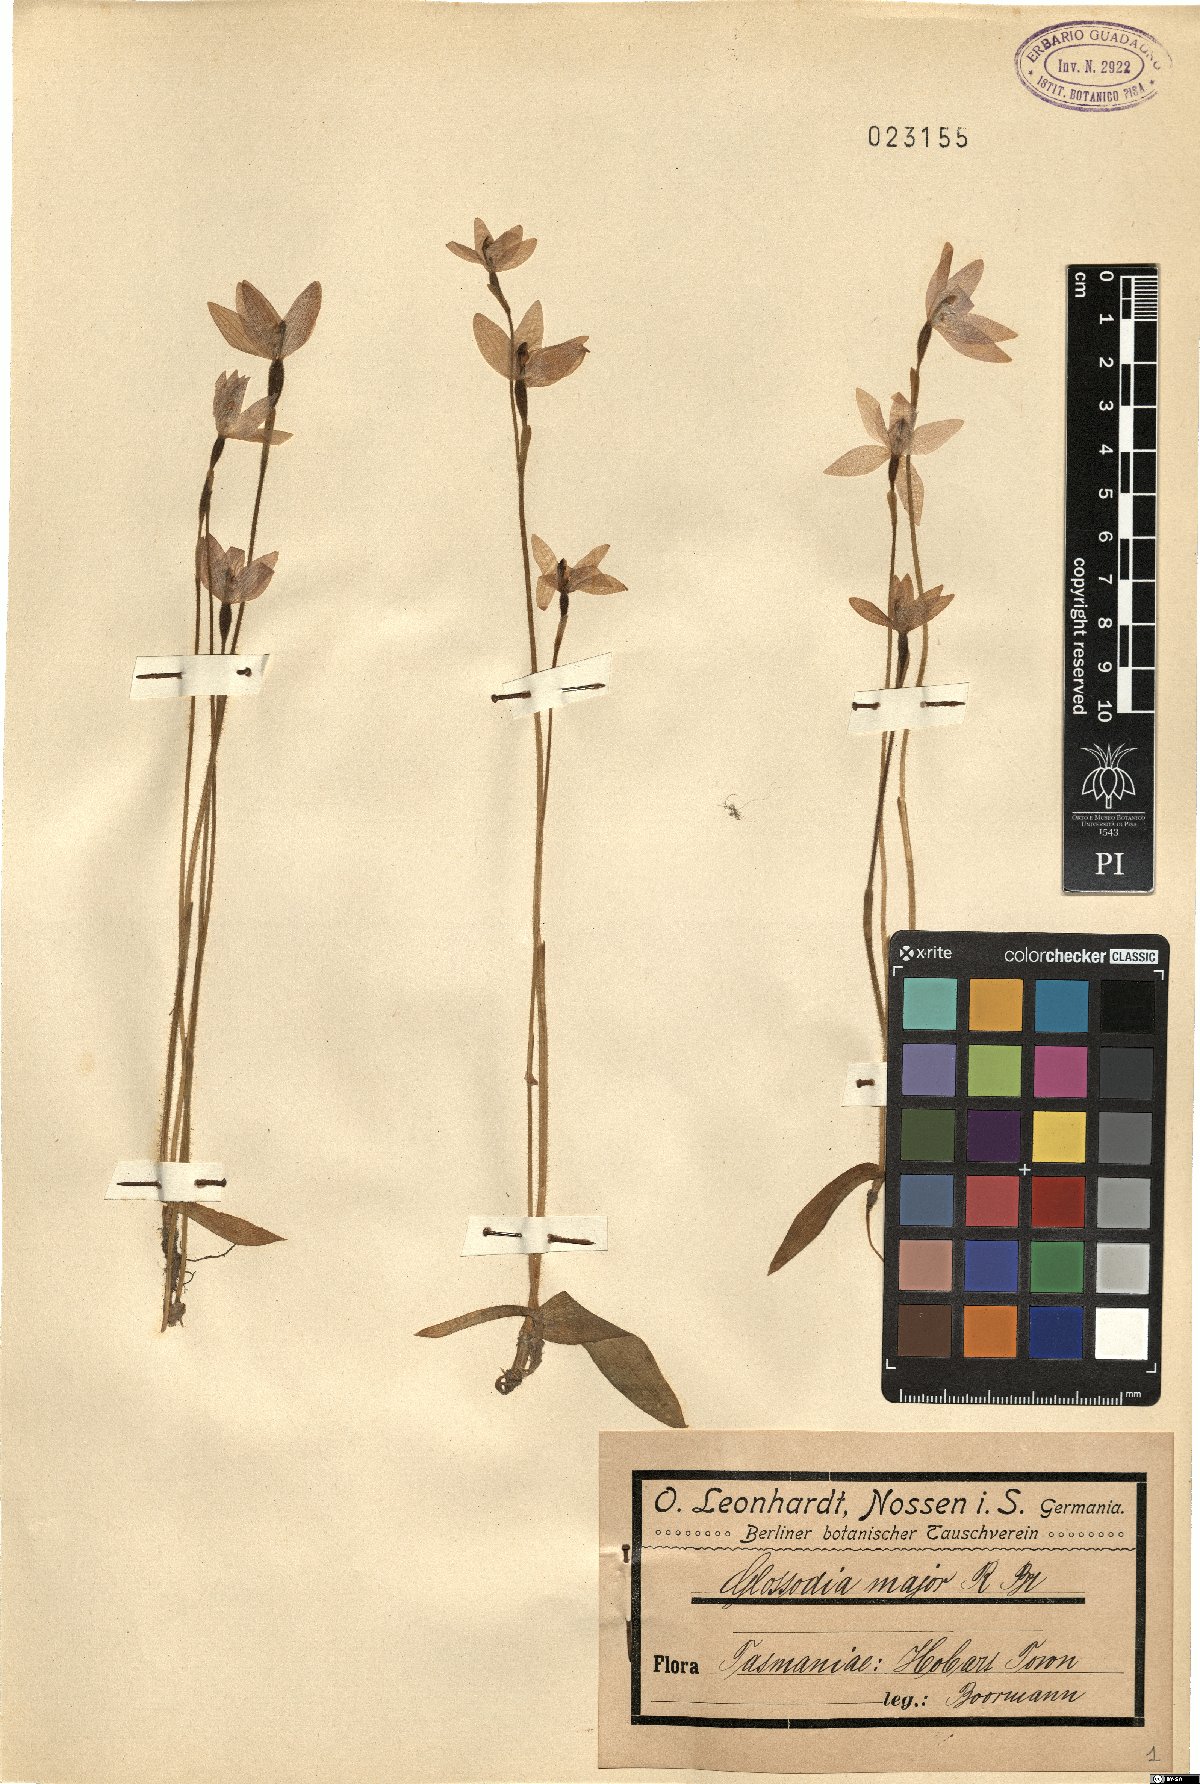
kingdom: Plantae
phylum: Tracheophyta
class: Liliopsida
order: Asparagales
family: Orchidaceae
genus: Caladenia
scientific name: Caladenia major
